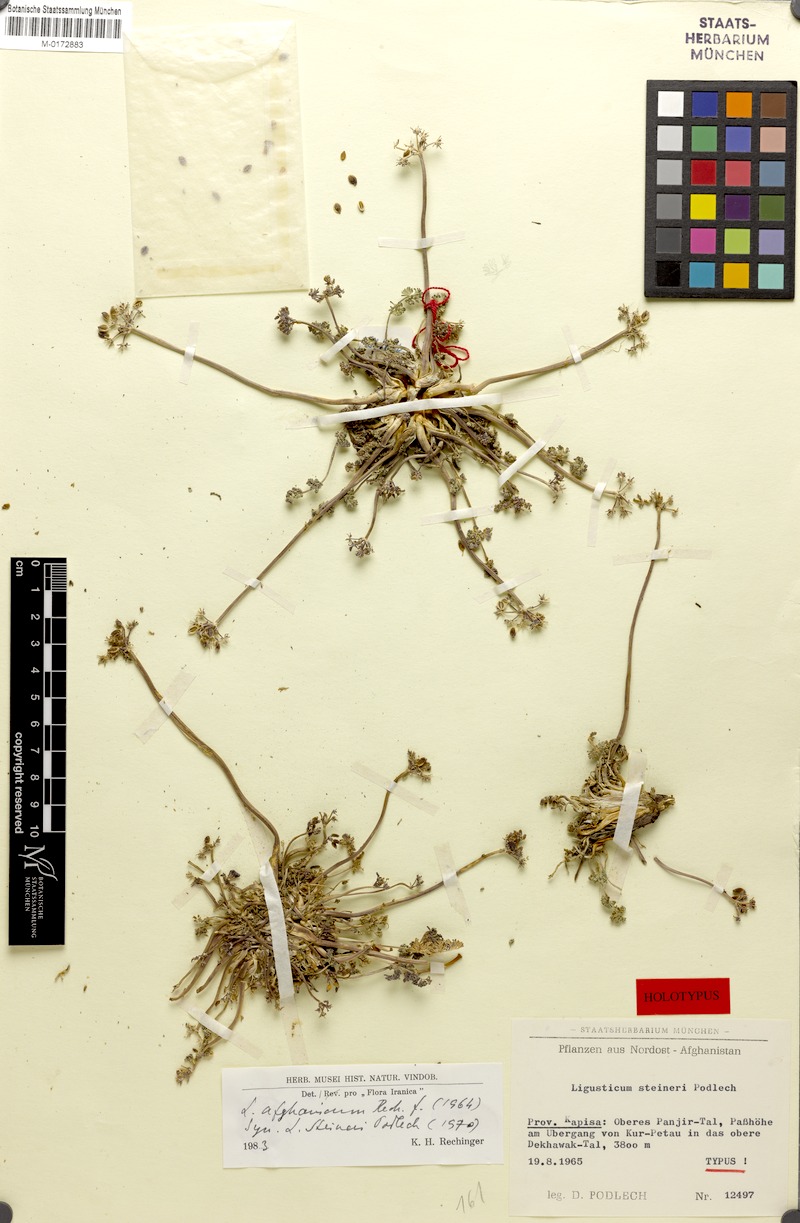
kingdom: Plantae
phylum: Tracheophyta
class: Magnoliopsida
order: Apiales
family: Apiaceae
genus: Ligusticum
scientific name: Ligusticum afghanicum
